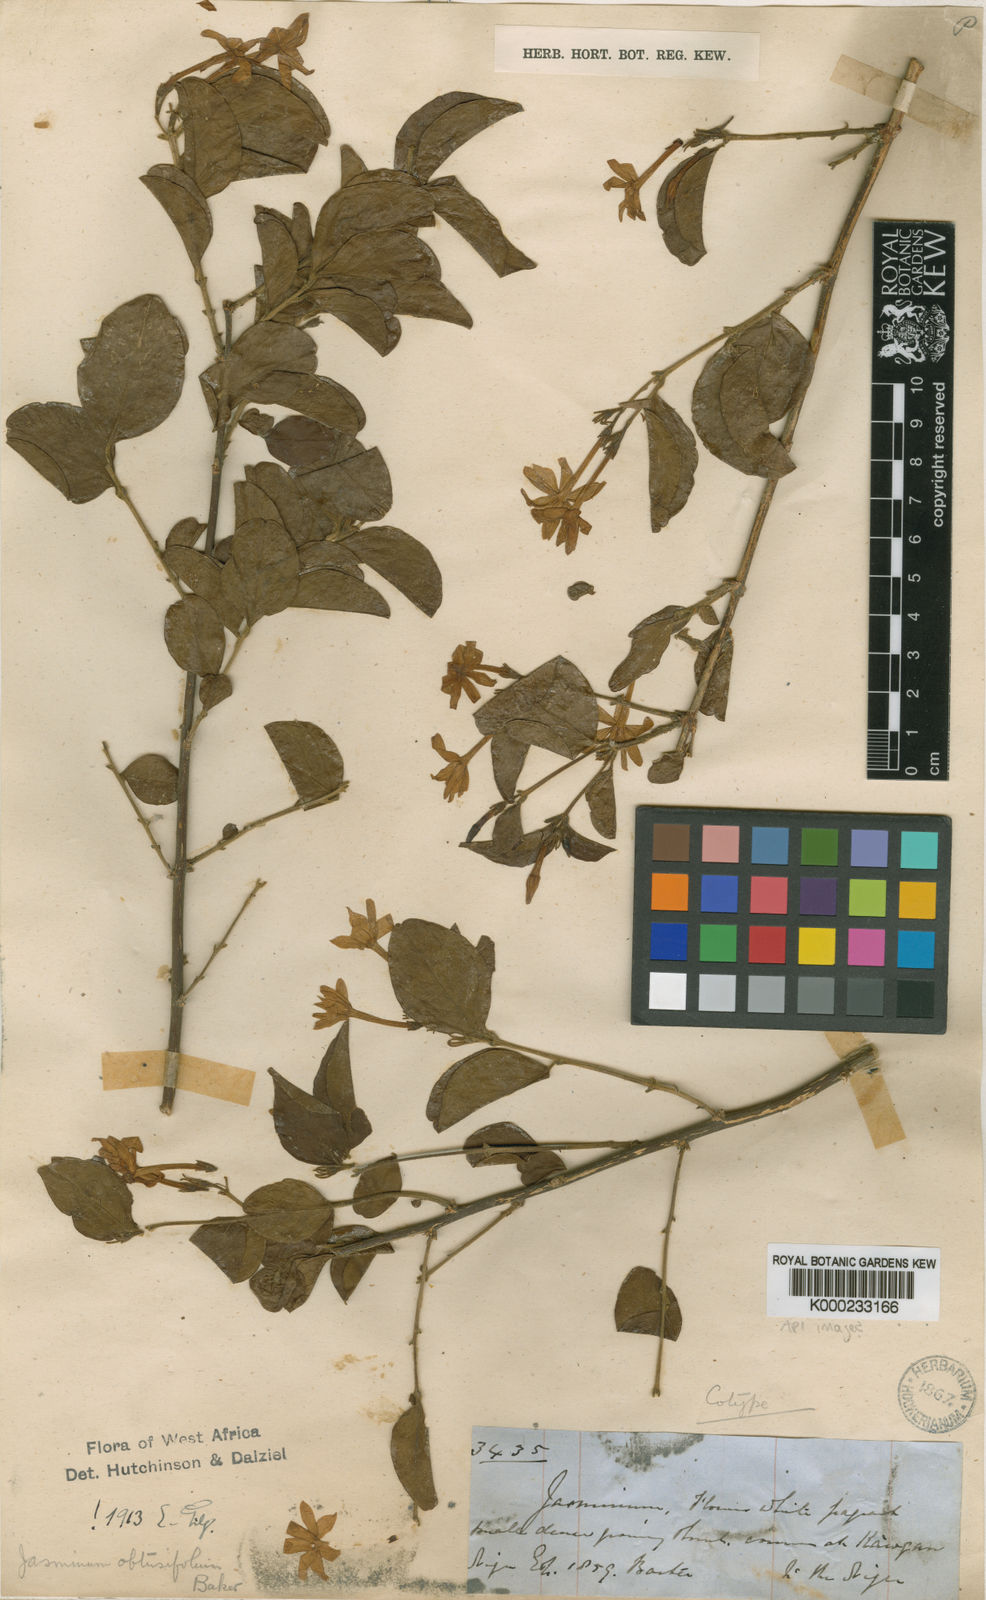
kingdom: Plantae
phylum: Tracheophyta
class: Magnoliopsida
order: Lamiales
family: Oleaceae
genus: Jasminum
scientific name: Jasminum obtusifolium
